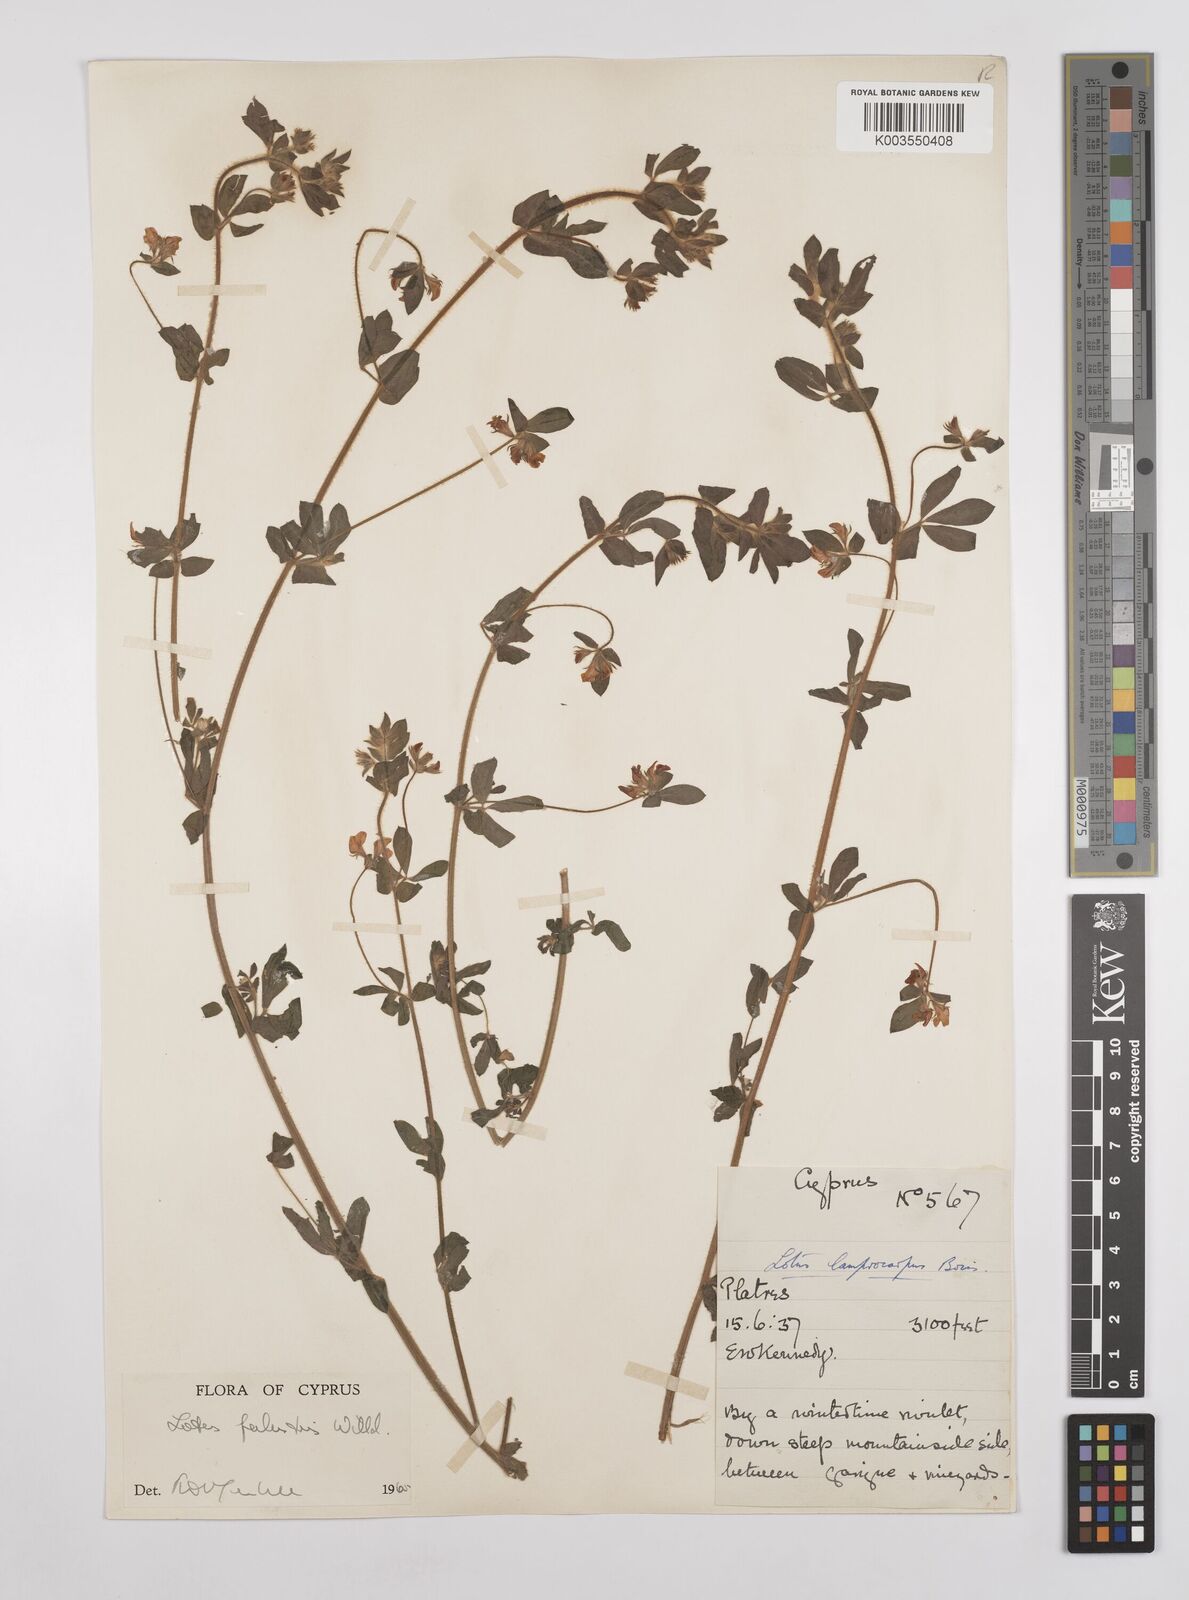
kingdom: Plantae
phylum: Tracheophyta
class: Magnoliopsida
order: Fabales
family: Fabaceae
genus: Lotus
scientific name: Lotus palustris
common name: Large birds-foot trefoil
